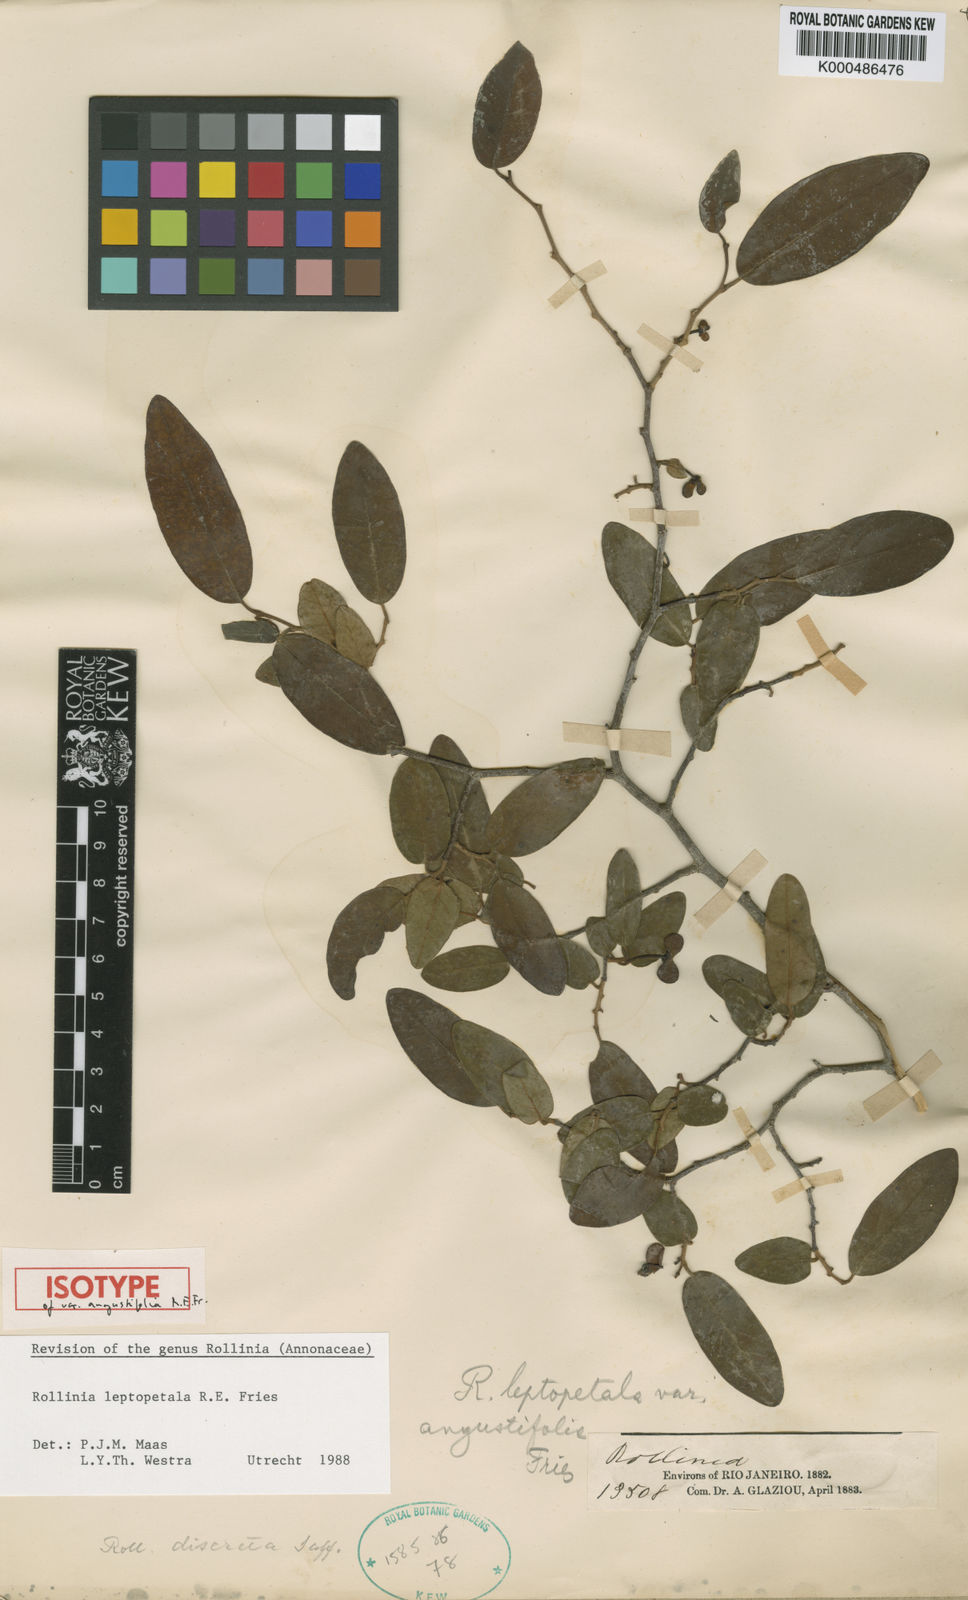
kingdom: Plantae
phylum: Tracheophyta
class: Magnoliopsida
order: Magnoliales
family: Annonaceae
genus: Annona
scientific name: Annona leptopetala
